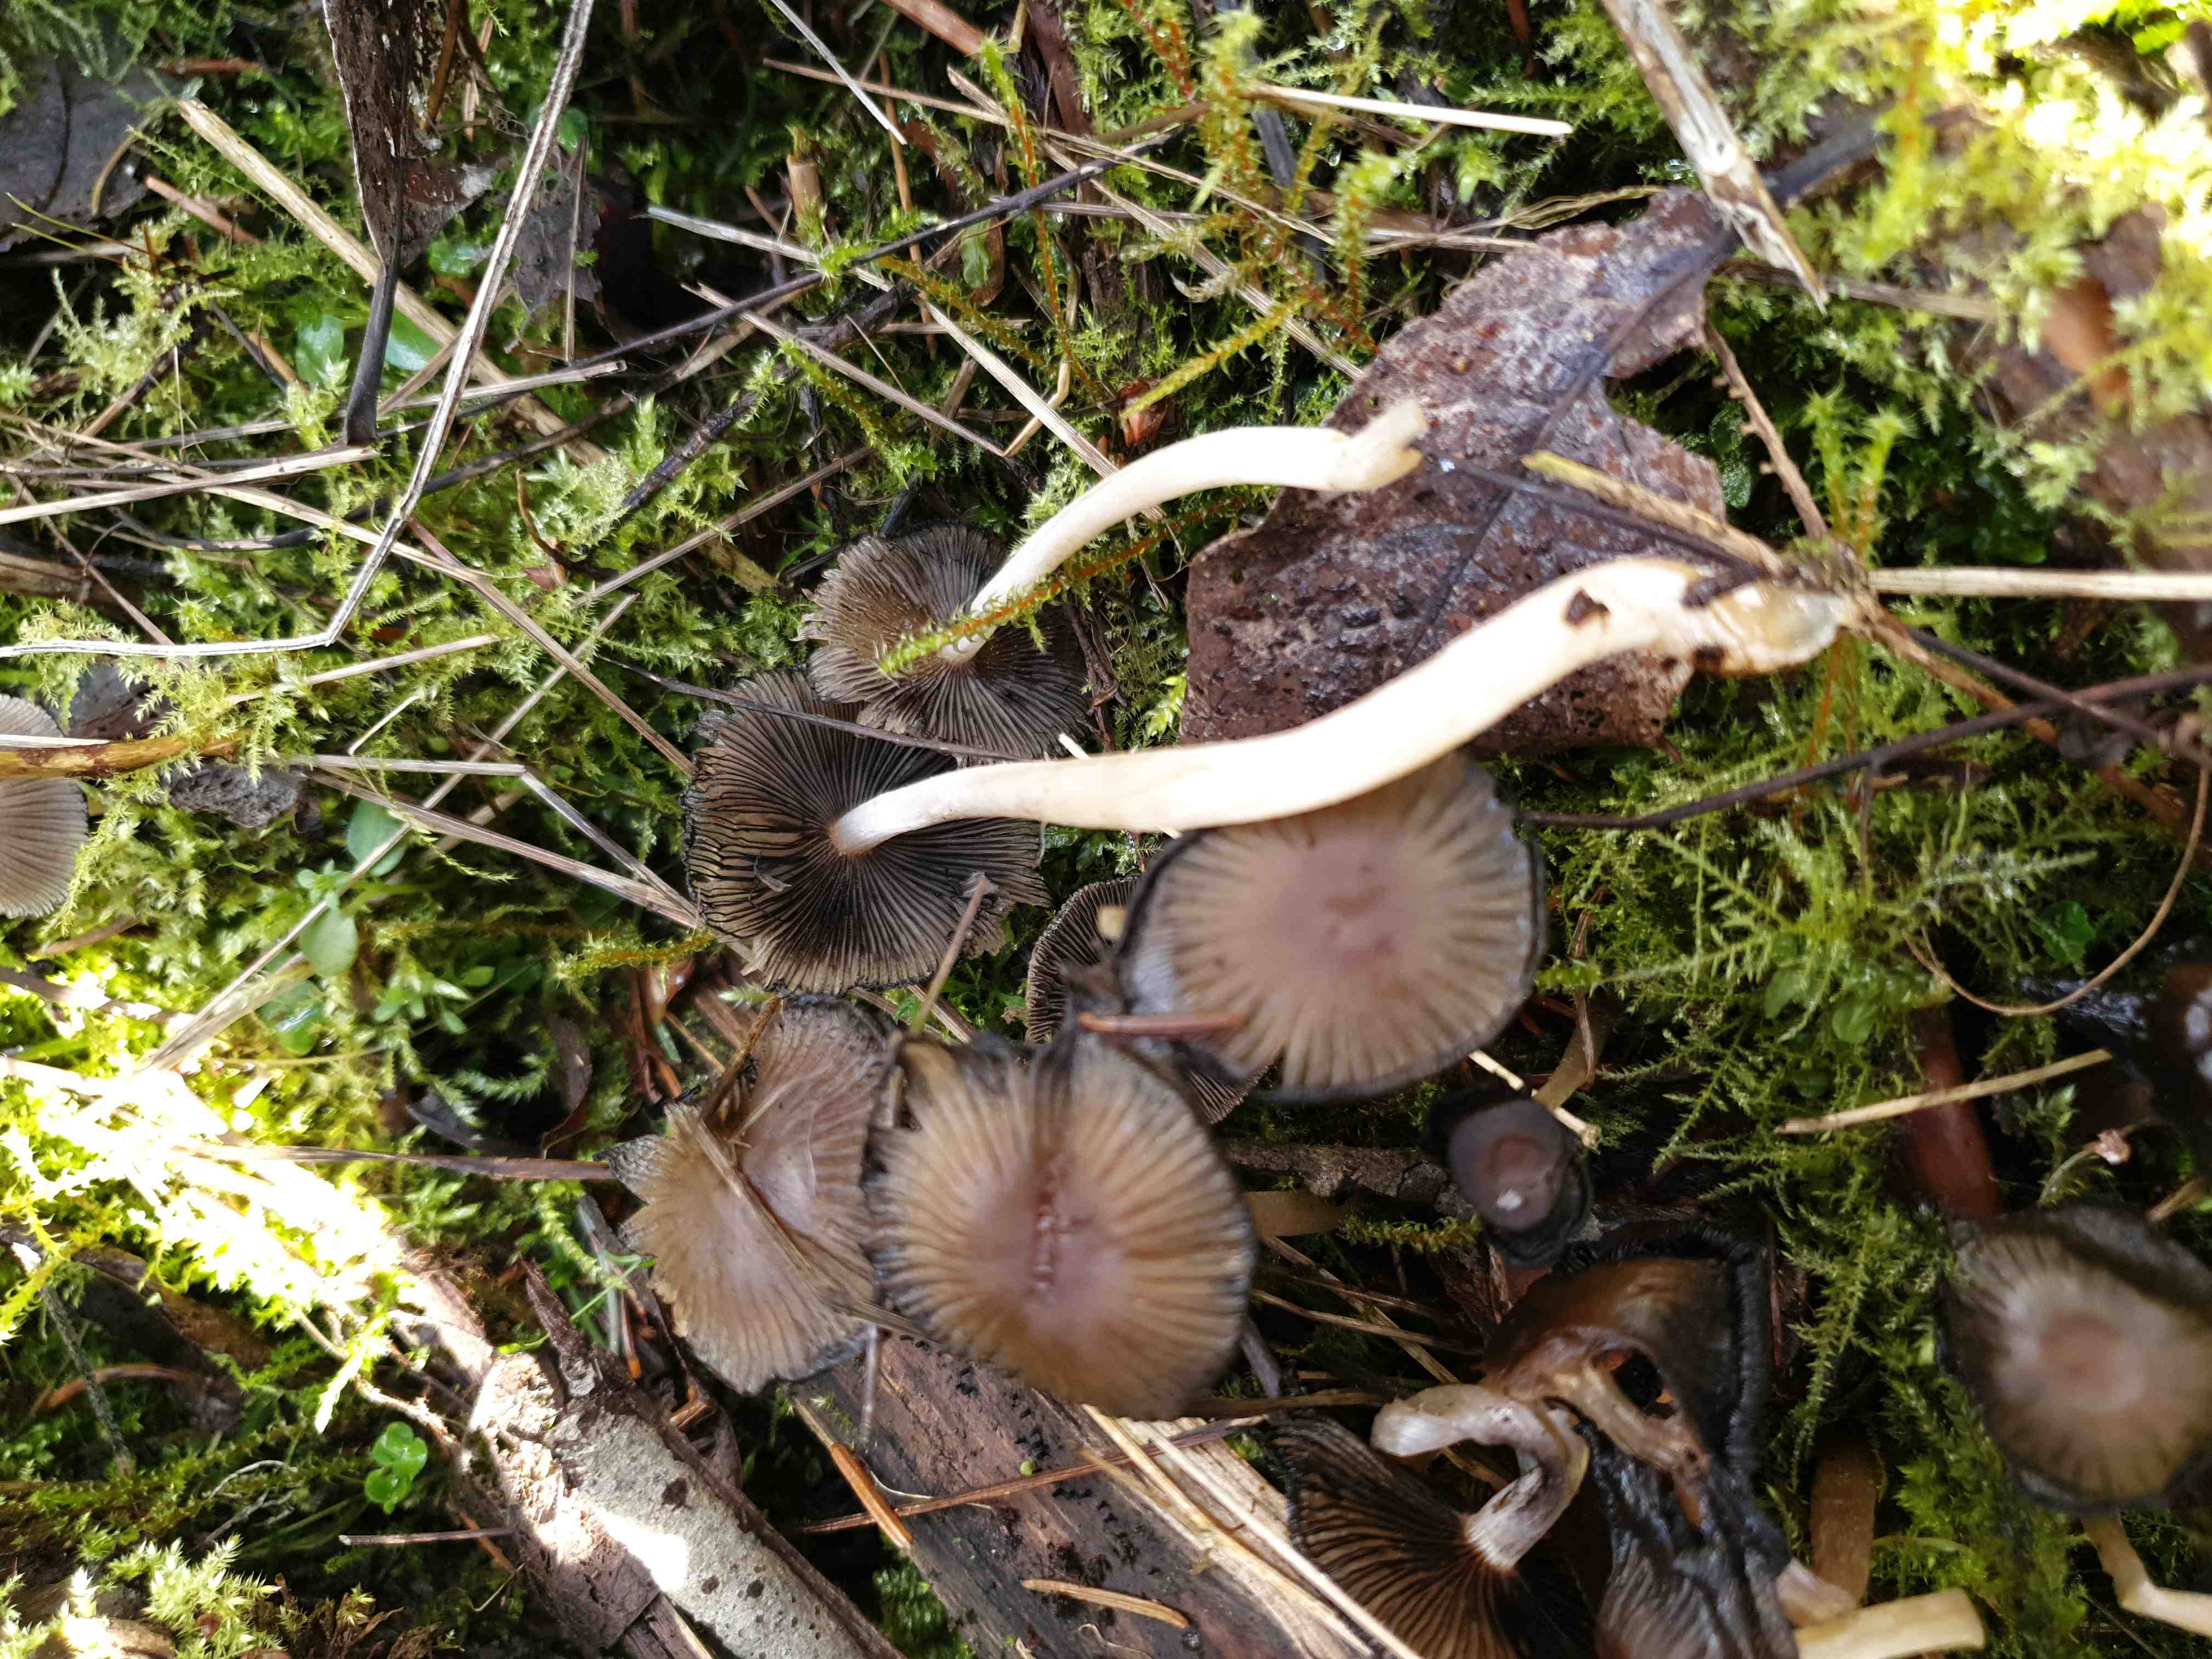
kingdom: Fungi
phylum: Basidiomycota
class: Agaricomycetes
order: Agaricales
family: Psathyrellaceae
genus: Coprinellus
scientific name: Coprinellus
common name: blækhat
